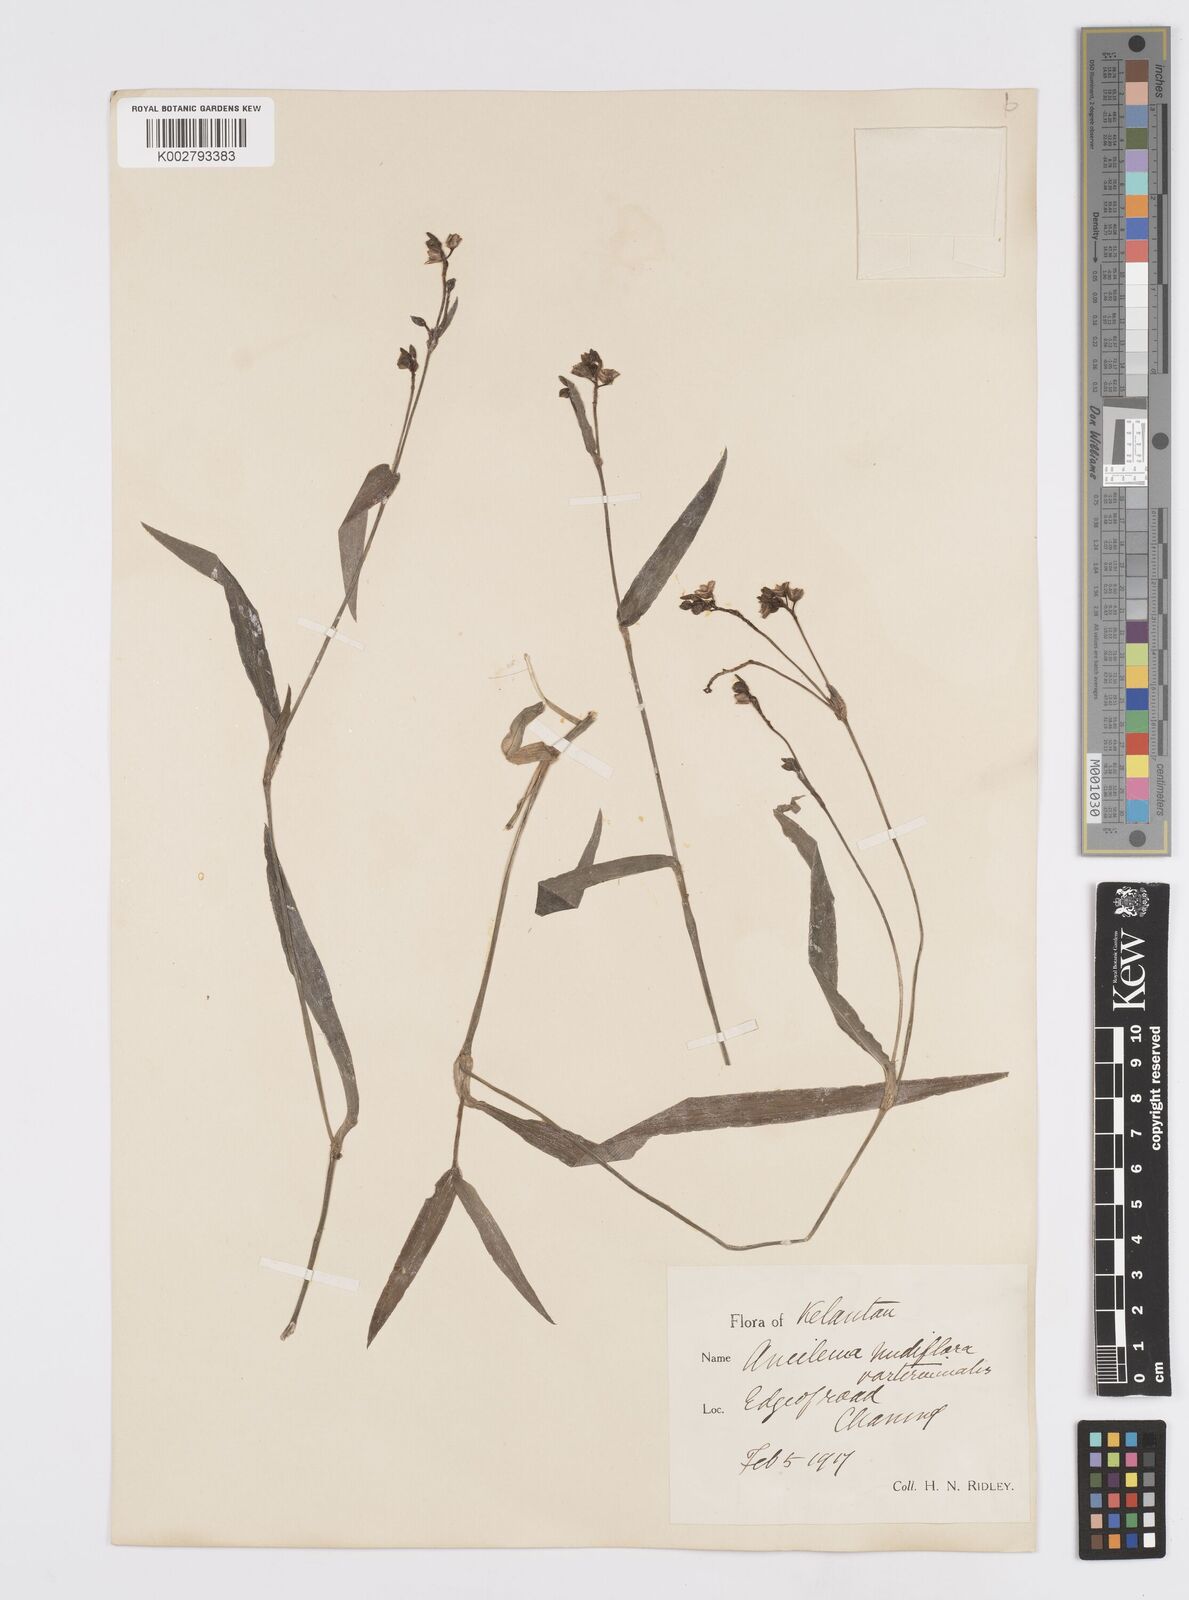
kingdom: Plantae
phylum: Tracheophyta
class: Liliopsida
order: Commelinales
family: Commelinaceae
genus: Murdannia
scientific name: Murdannia
